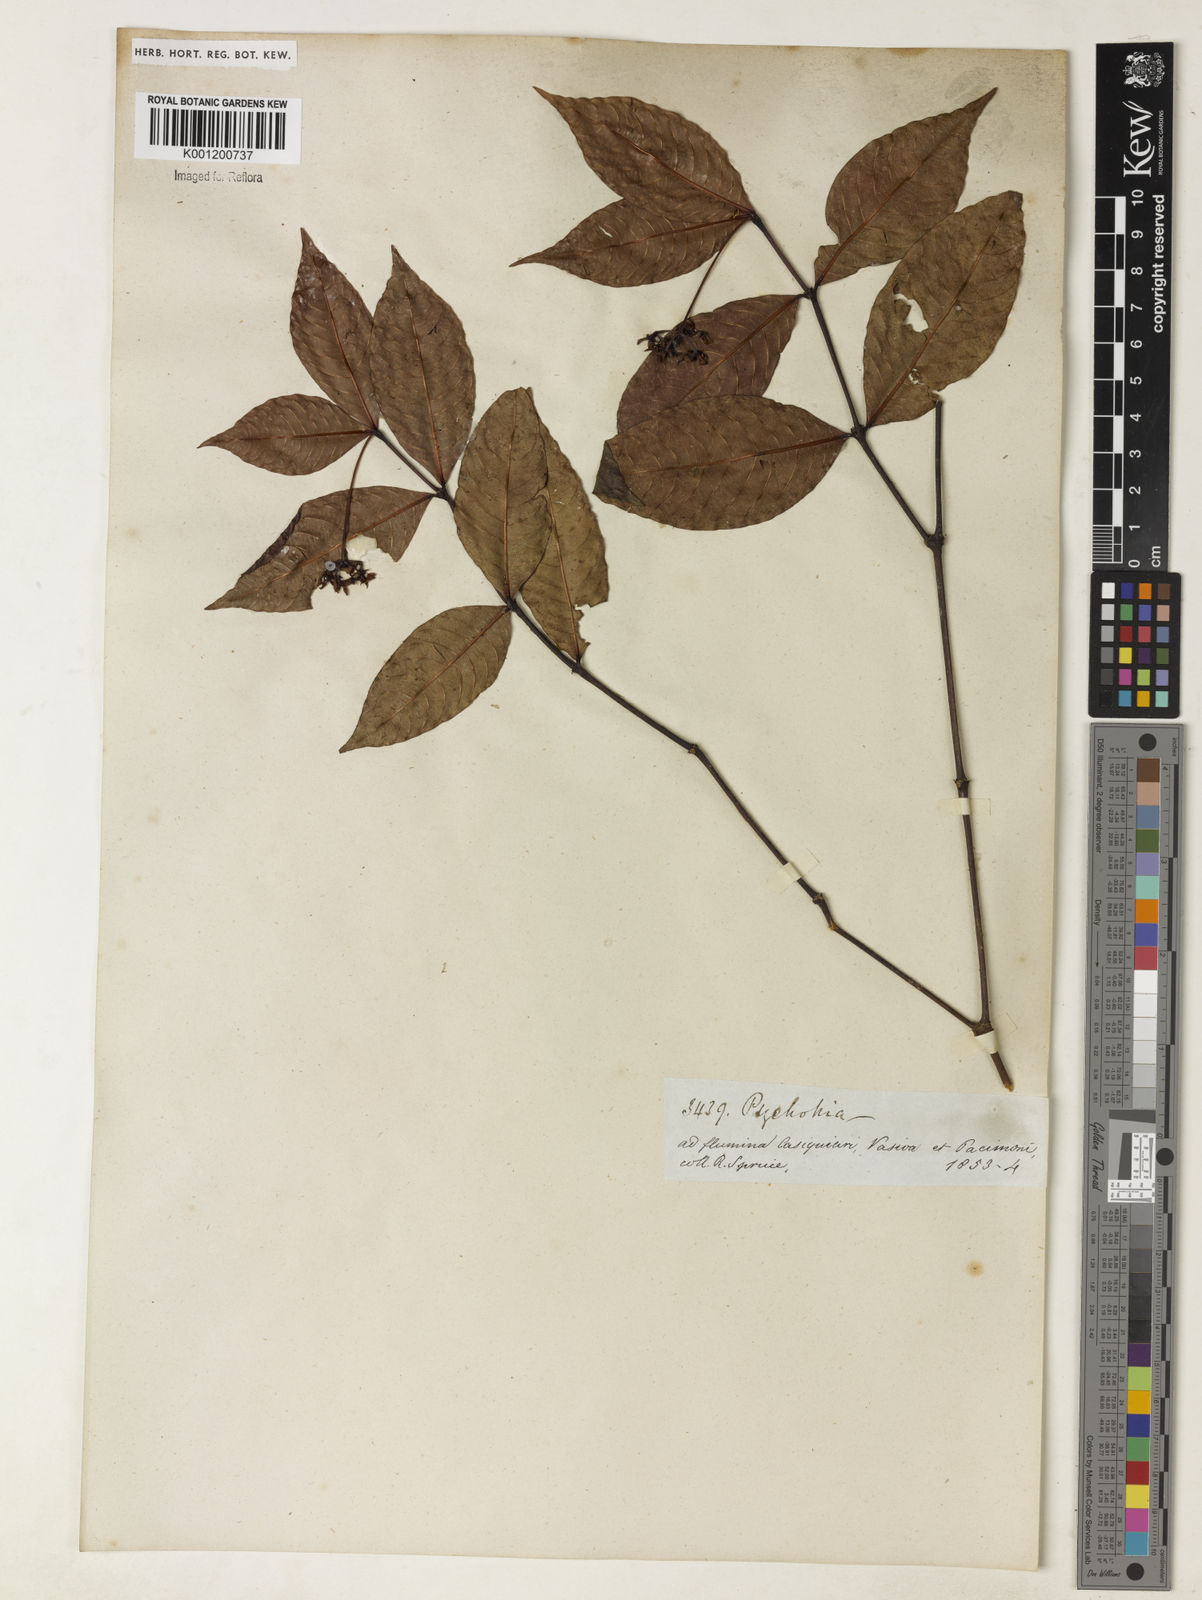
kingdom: Plantae
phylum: Tracheophyta
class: Magnoliopsida
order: Gentianales
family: Rubiaceae
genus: Psychotria
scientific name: Psychotria
